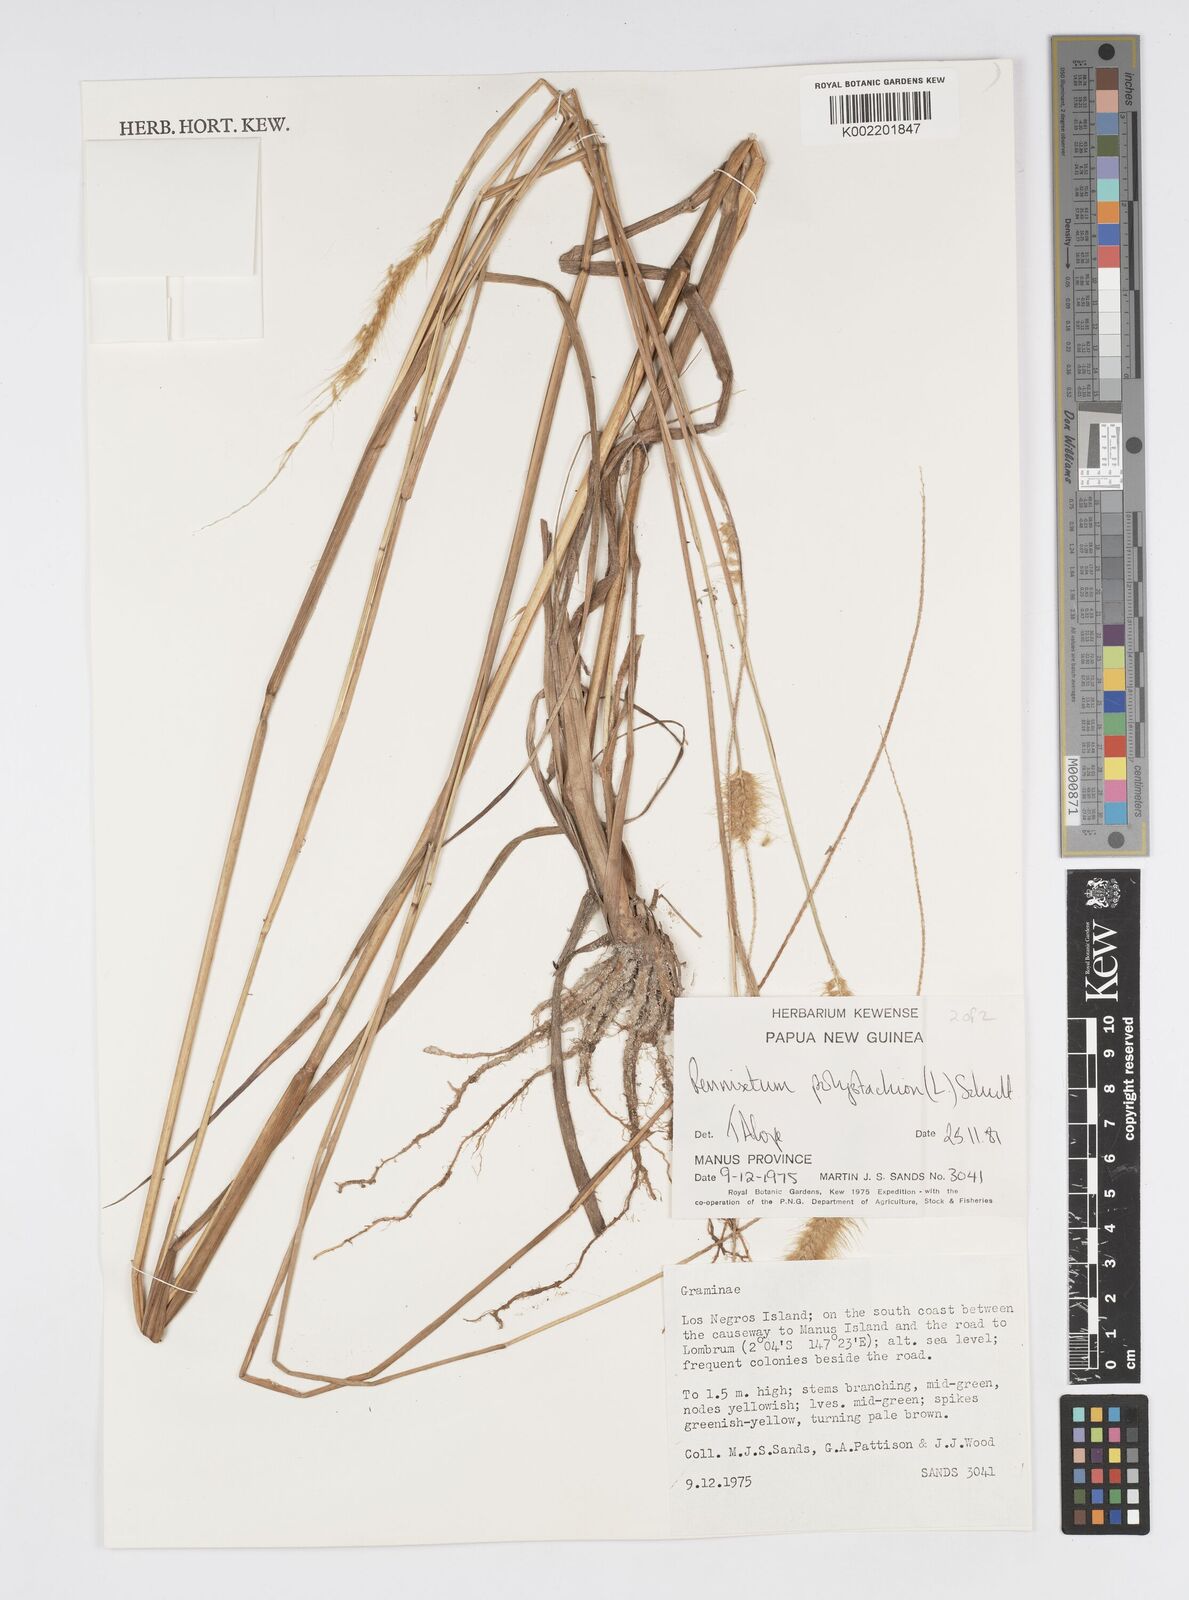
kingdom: Plantae
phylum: Tracheophyta
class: Liliopsida
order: Poales
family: Poaceae
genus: Setaria
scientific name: Setaria parviflora
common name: Knotroot bristle-grass
